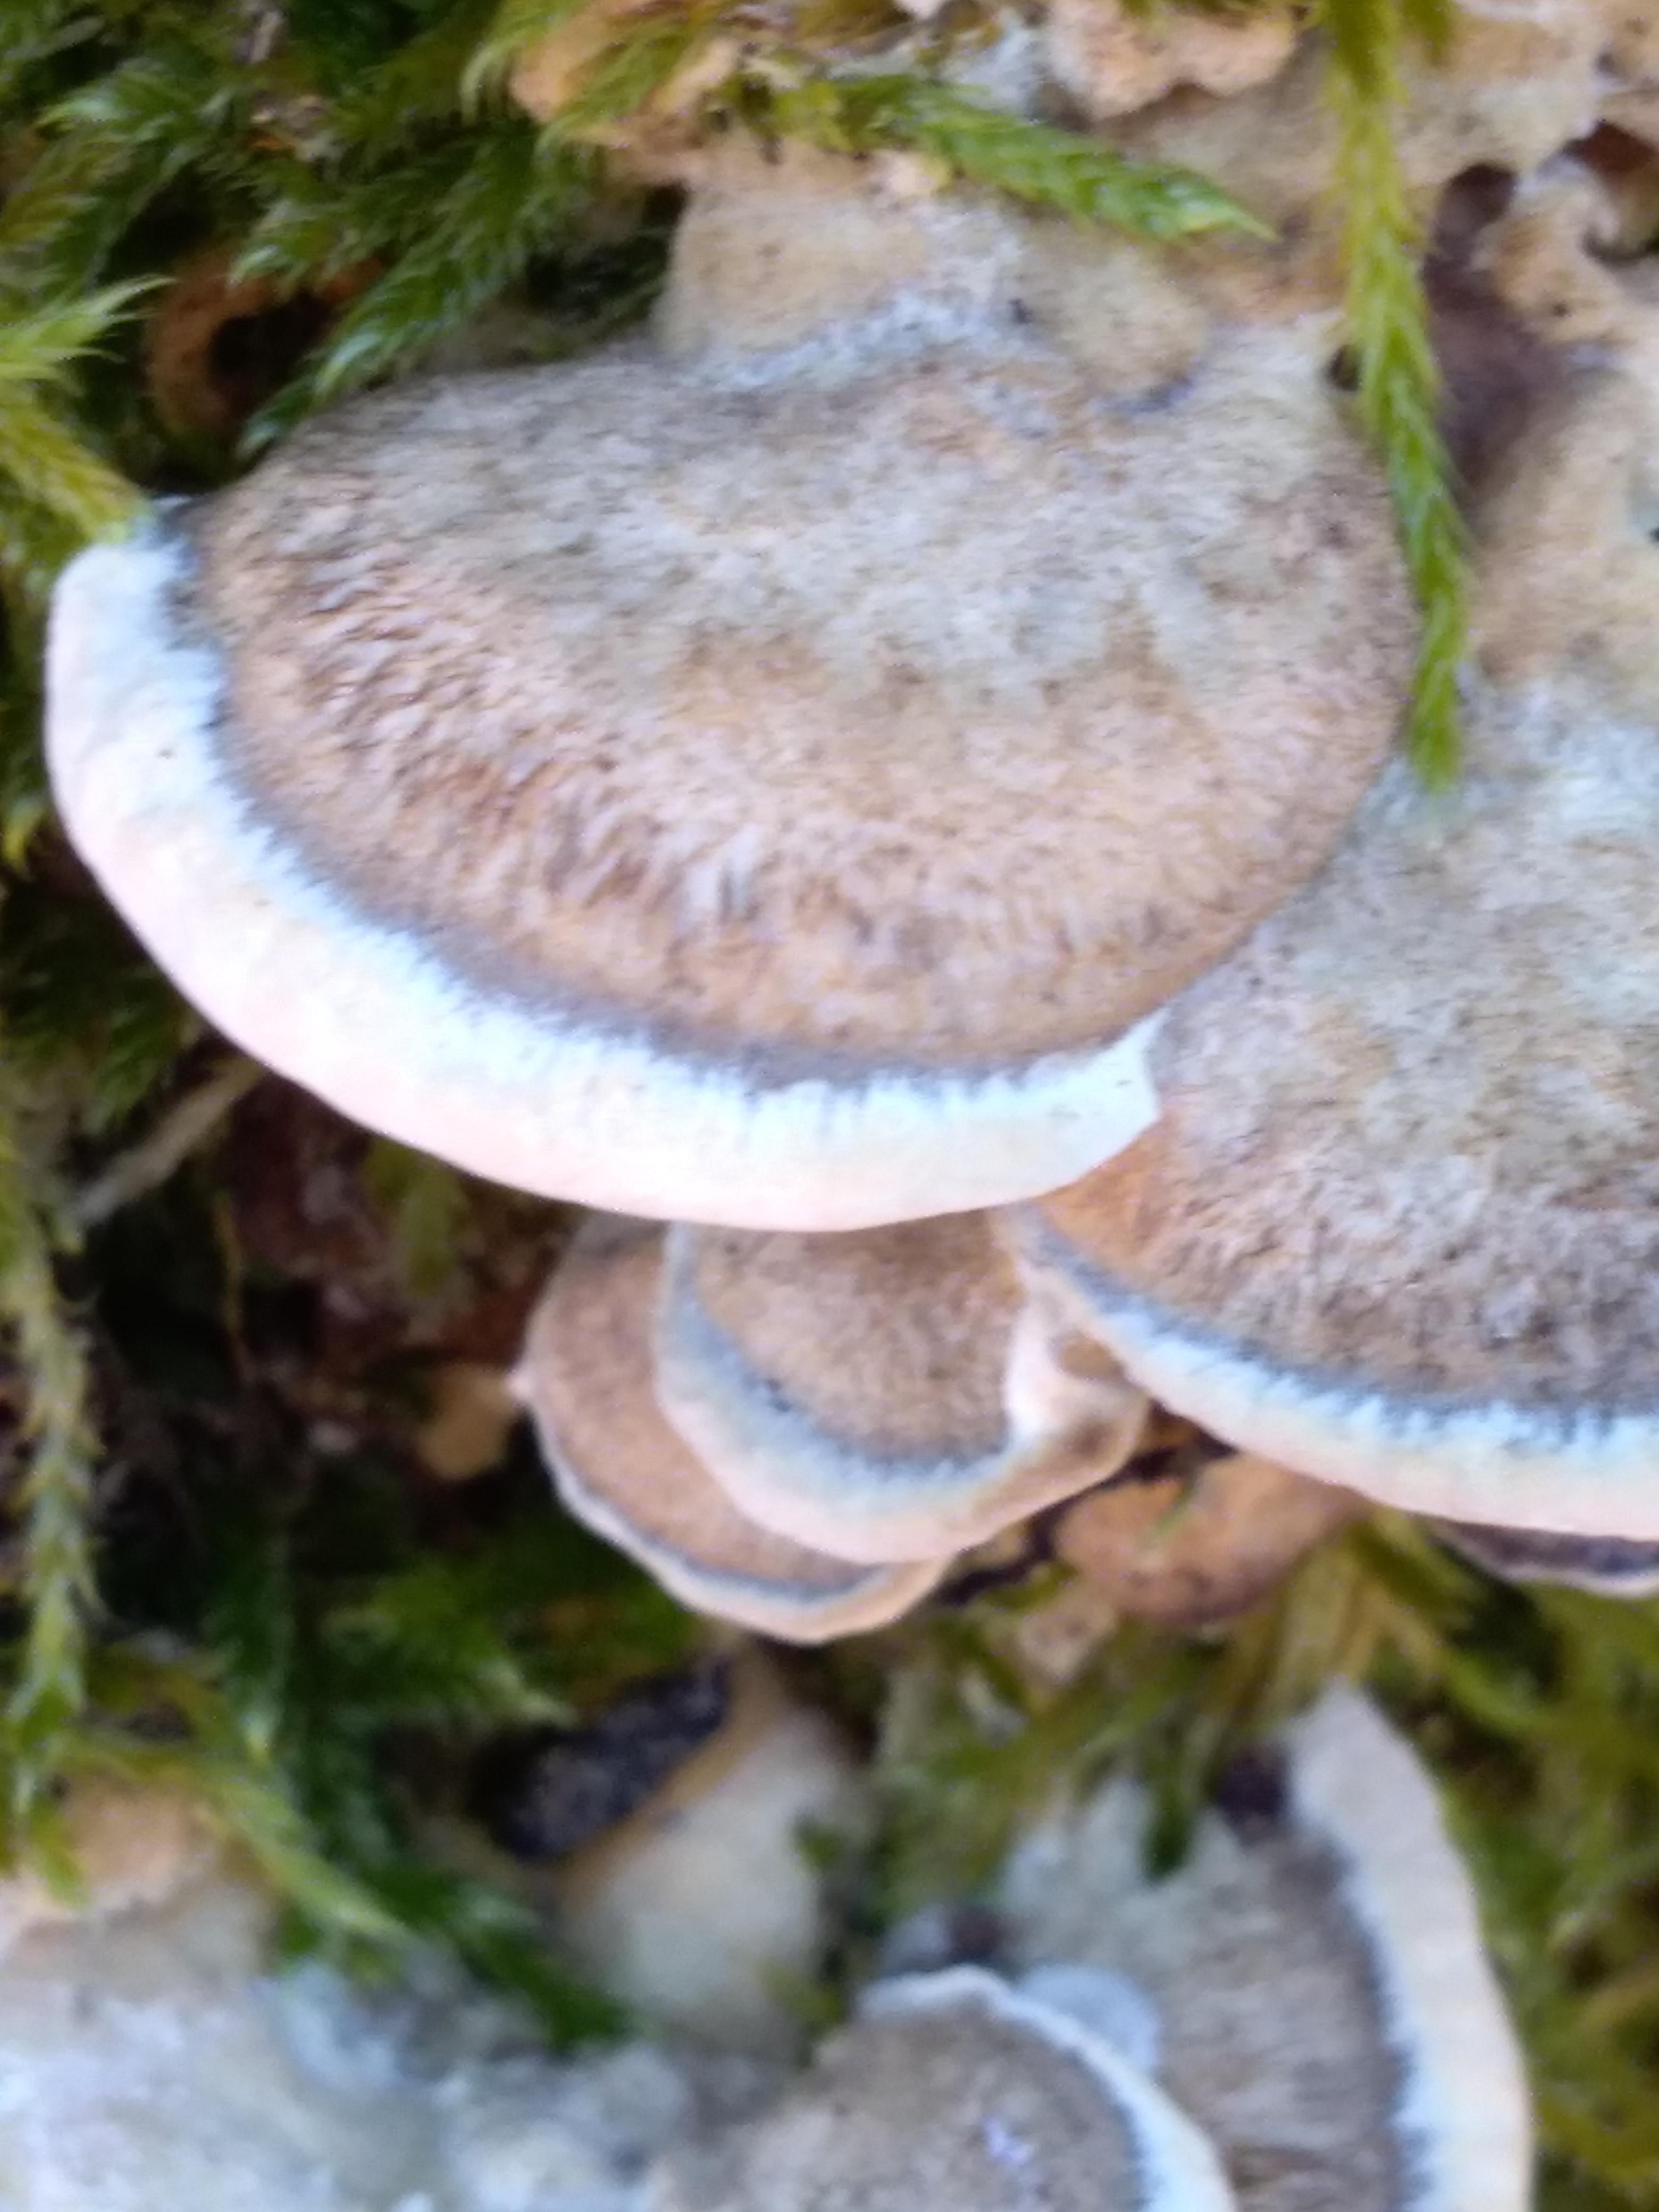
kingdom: Fungi
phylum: Basidiomycota
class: Agaricomycetes
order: Polyporales
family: Phanerochaetaceae
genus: Bjerkandera
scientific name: Bjerkandera adusta
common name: sveden sodporesvamp
